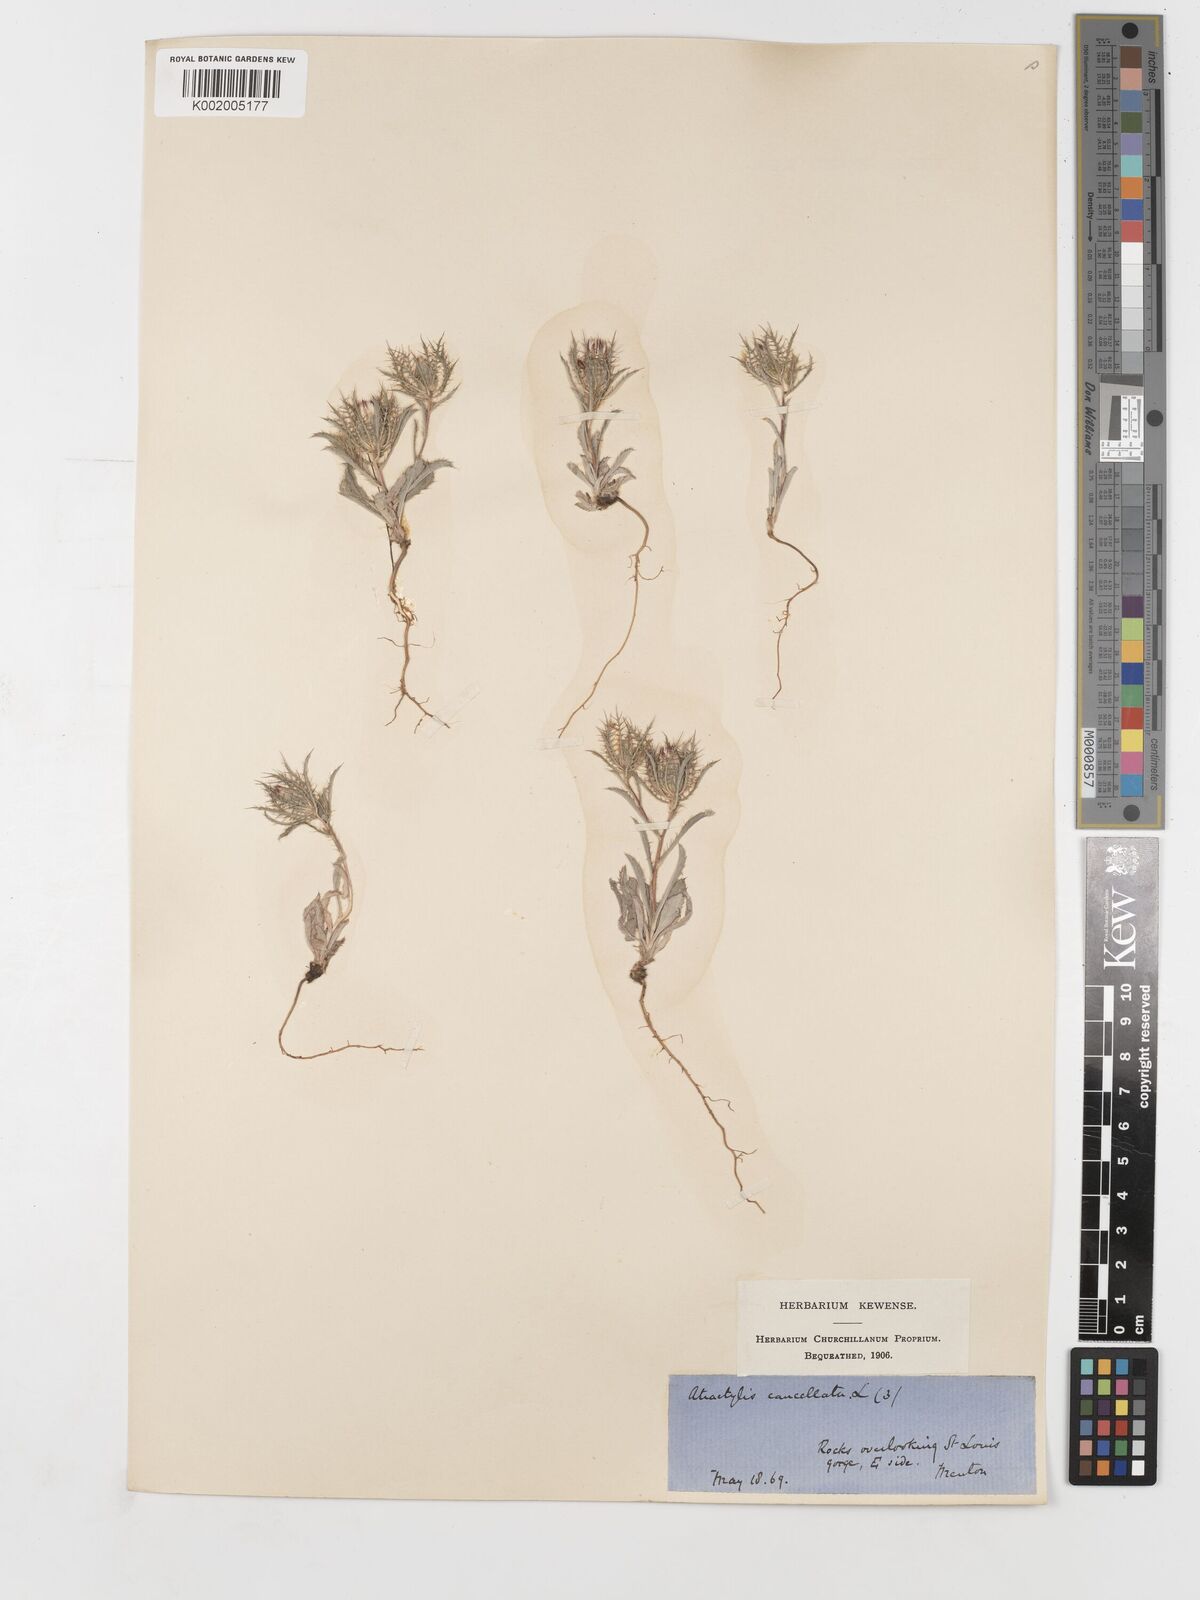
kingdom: Plantae
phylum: Tracheophyta
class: Magnoliopsida
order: Asterales
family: Asteraceae
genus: Atractylis
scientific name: Atractylis cancellata
